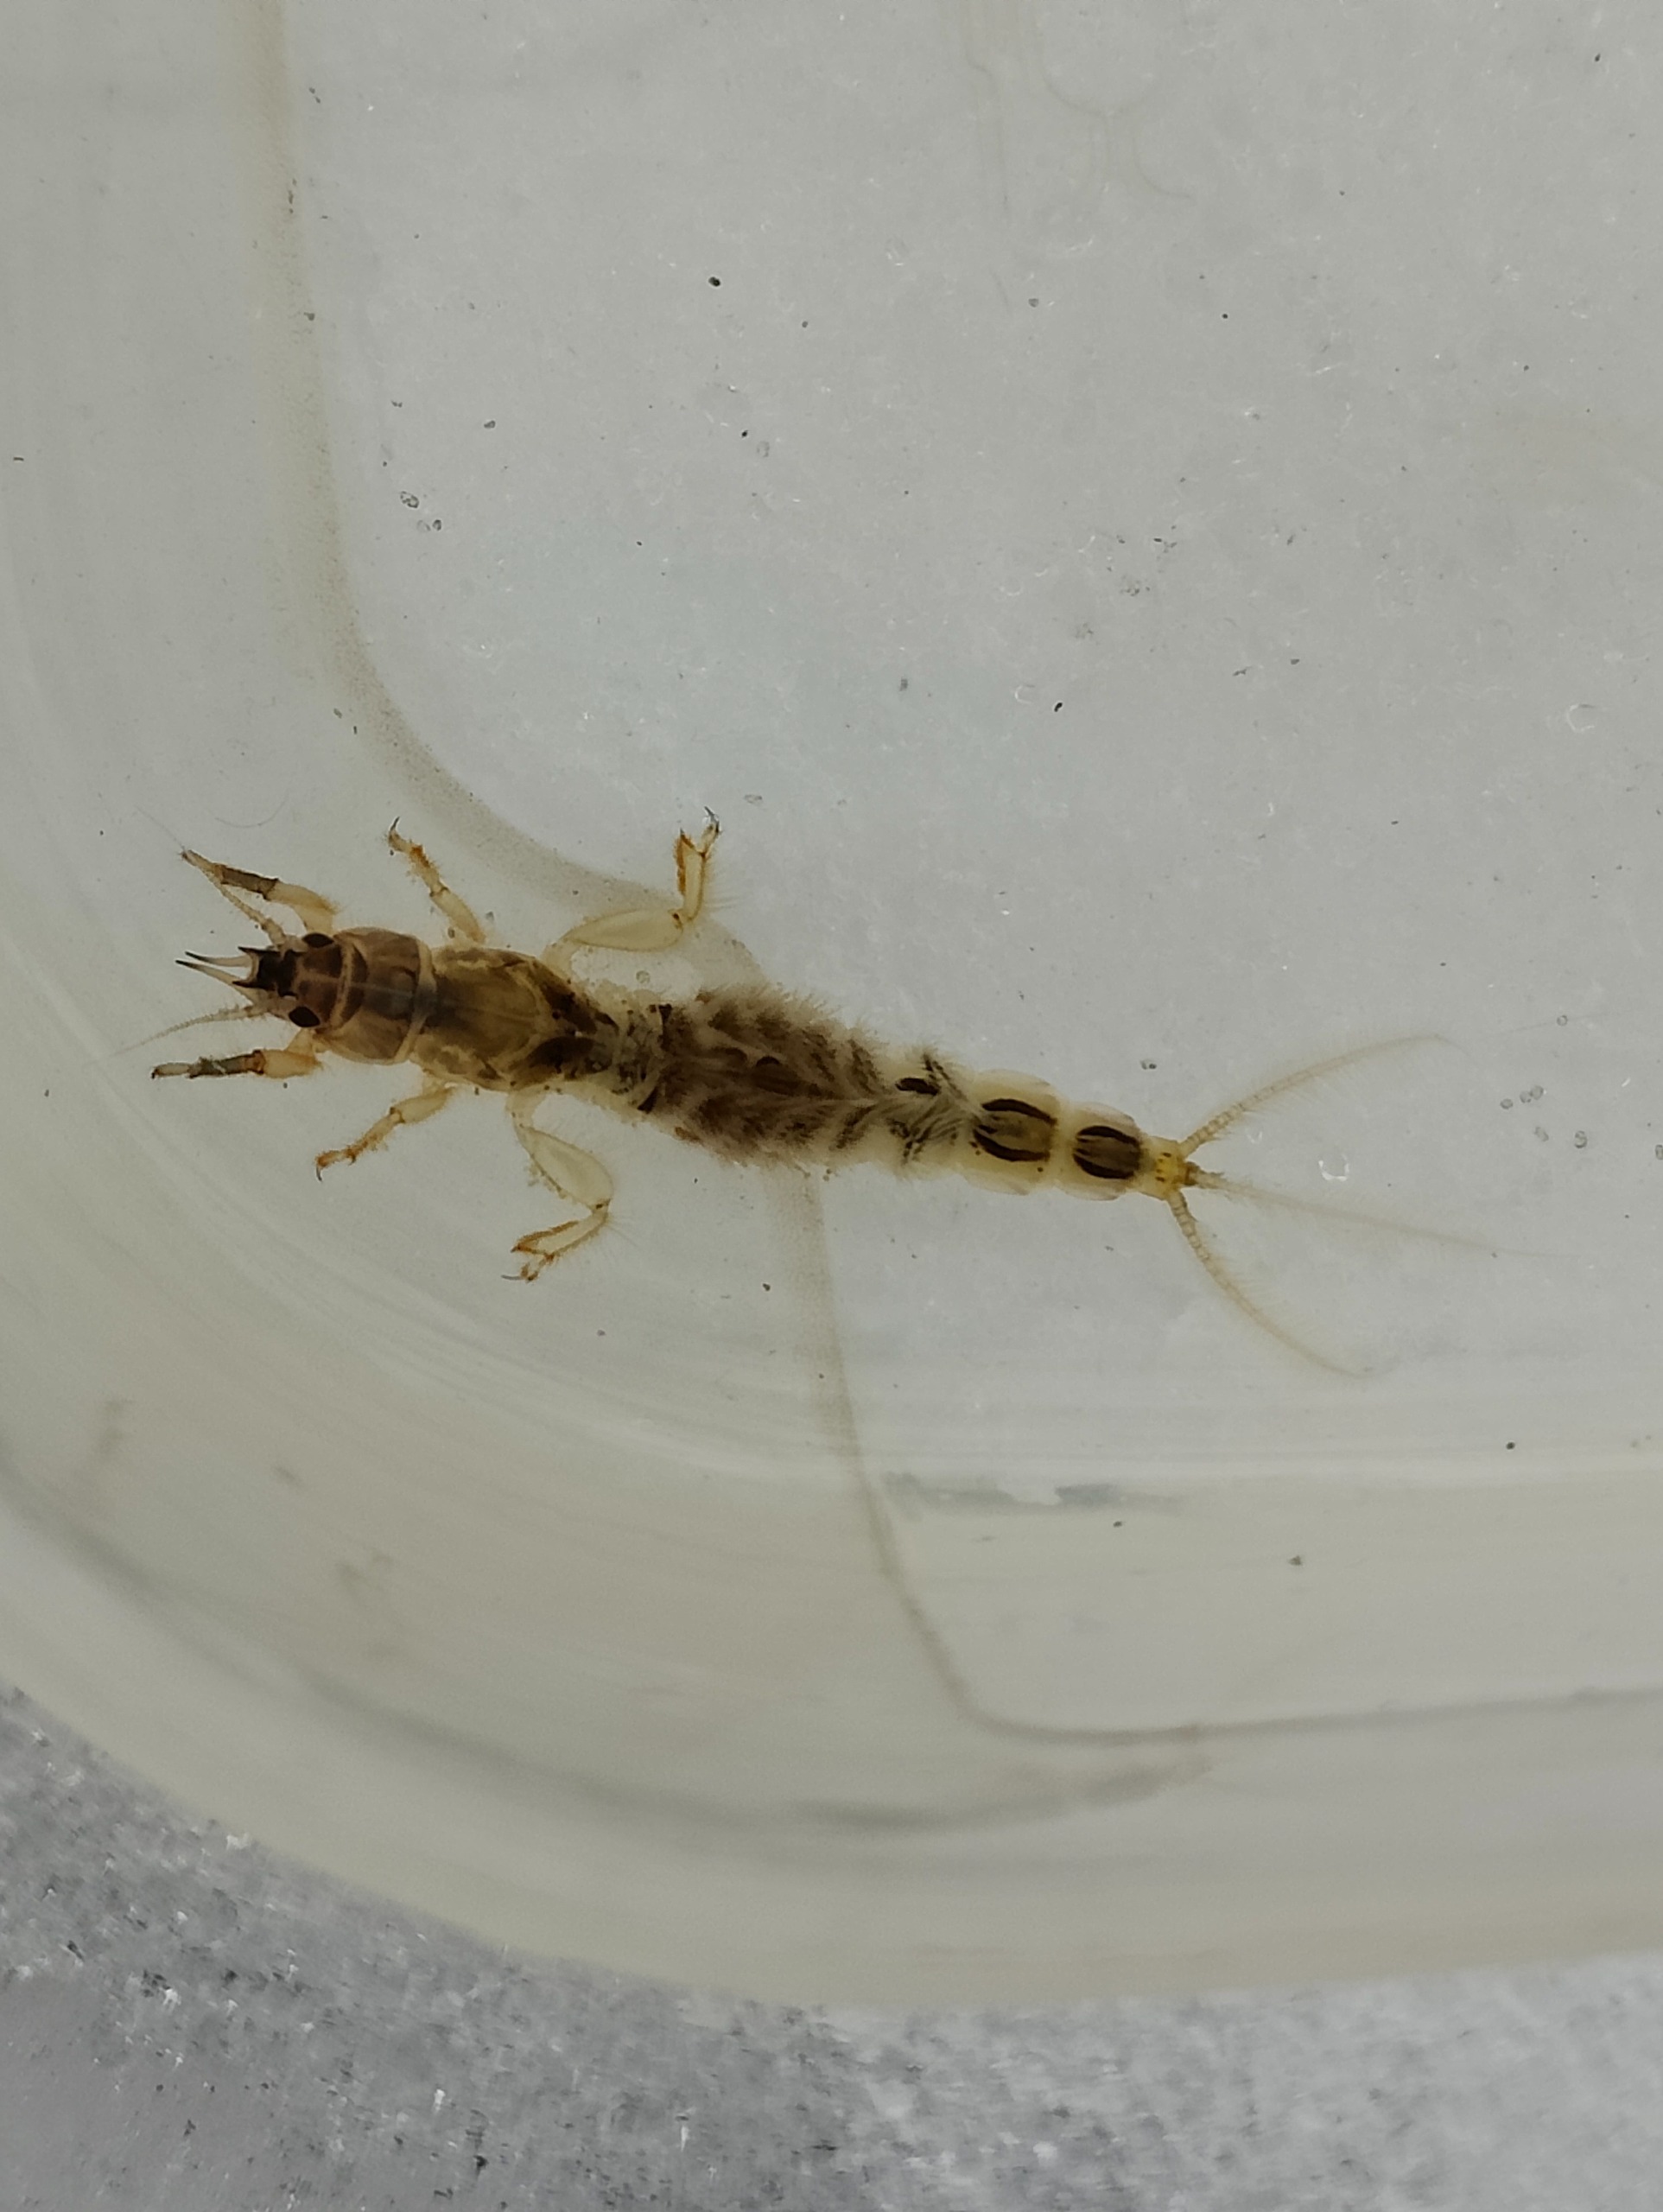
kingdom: Animalia
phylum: Arthropoda
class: Insecta
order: Ephemeroptera
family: Ephemeridae
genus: Ephemera
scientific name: Ephemera vulgata
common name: Sø-majflue
